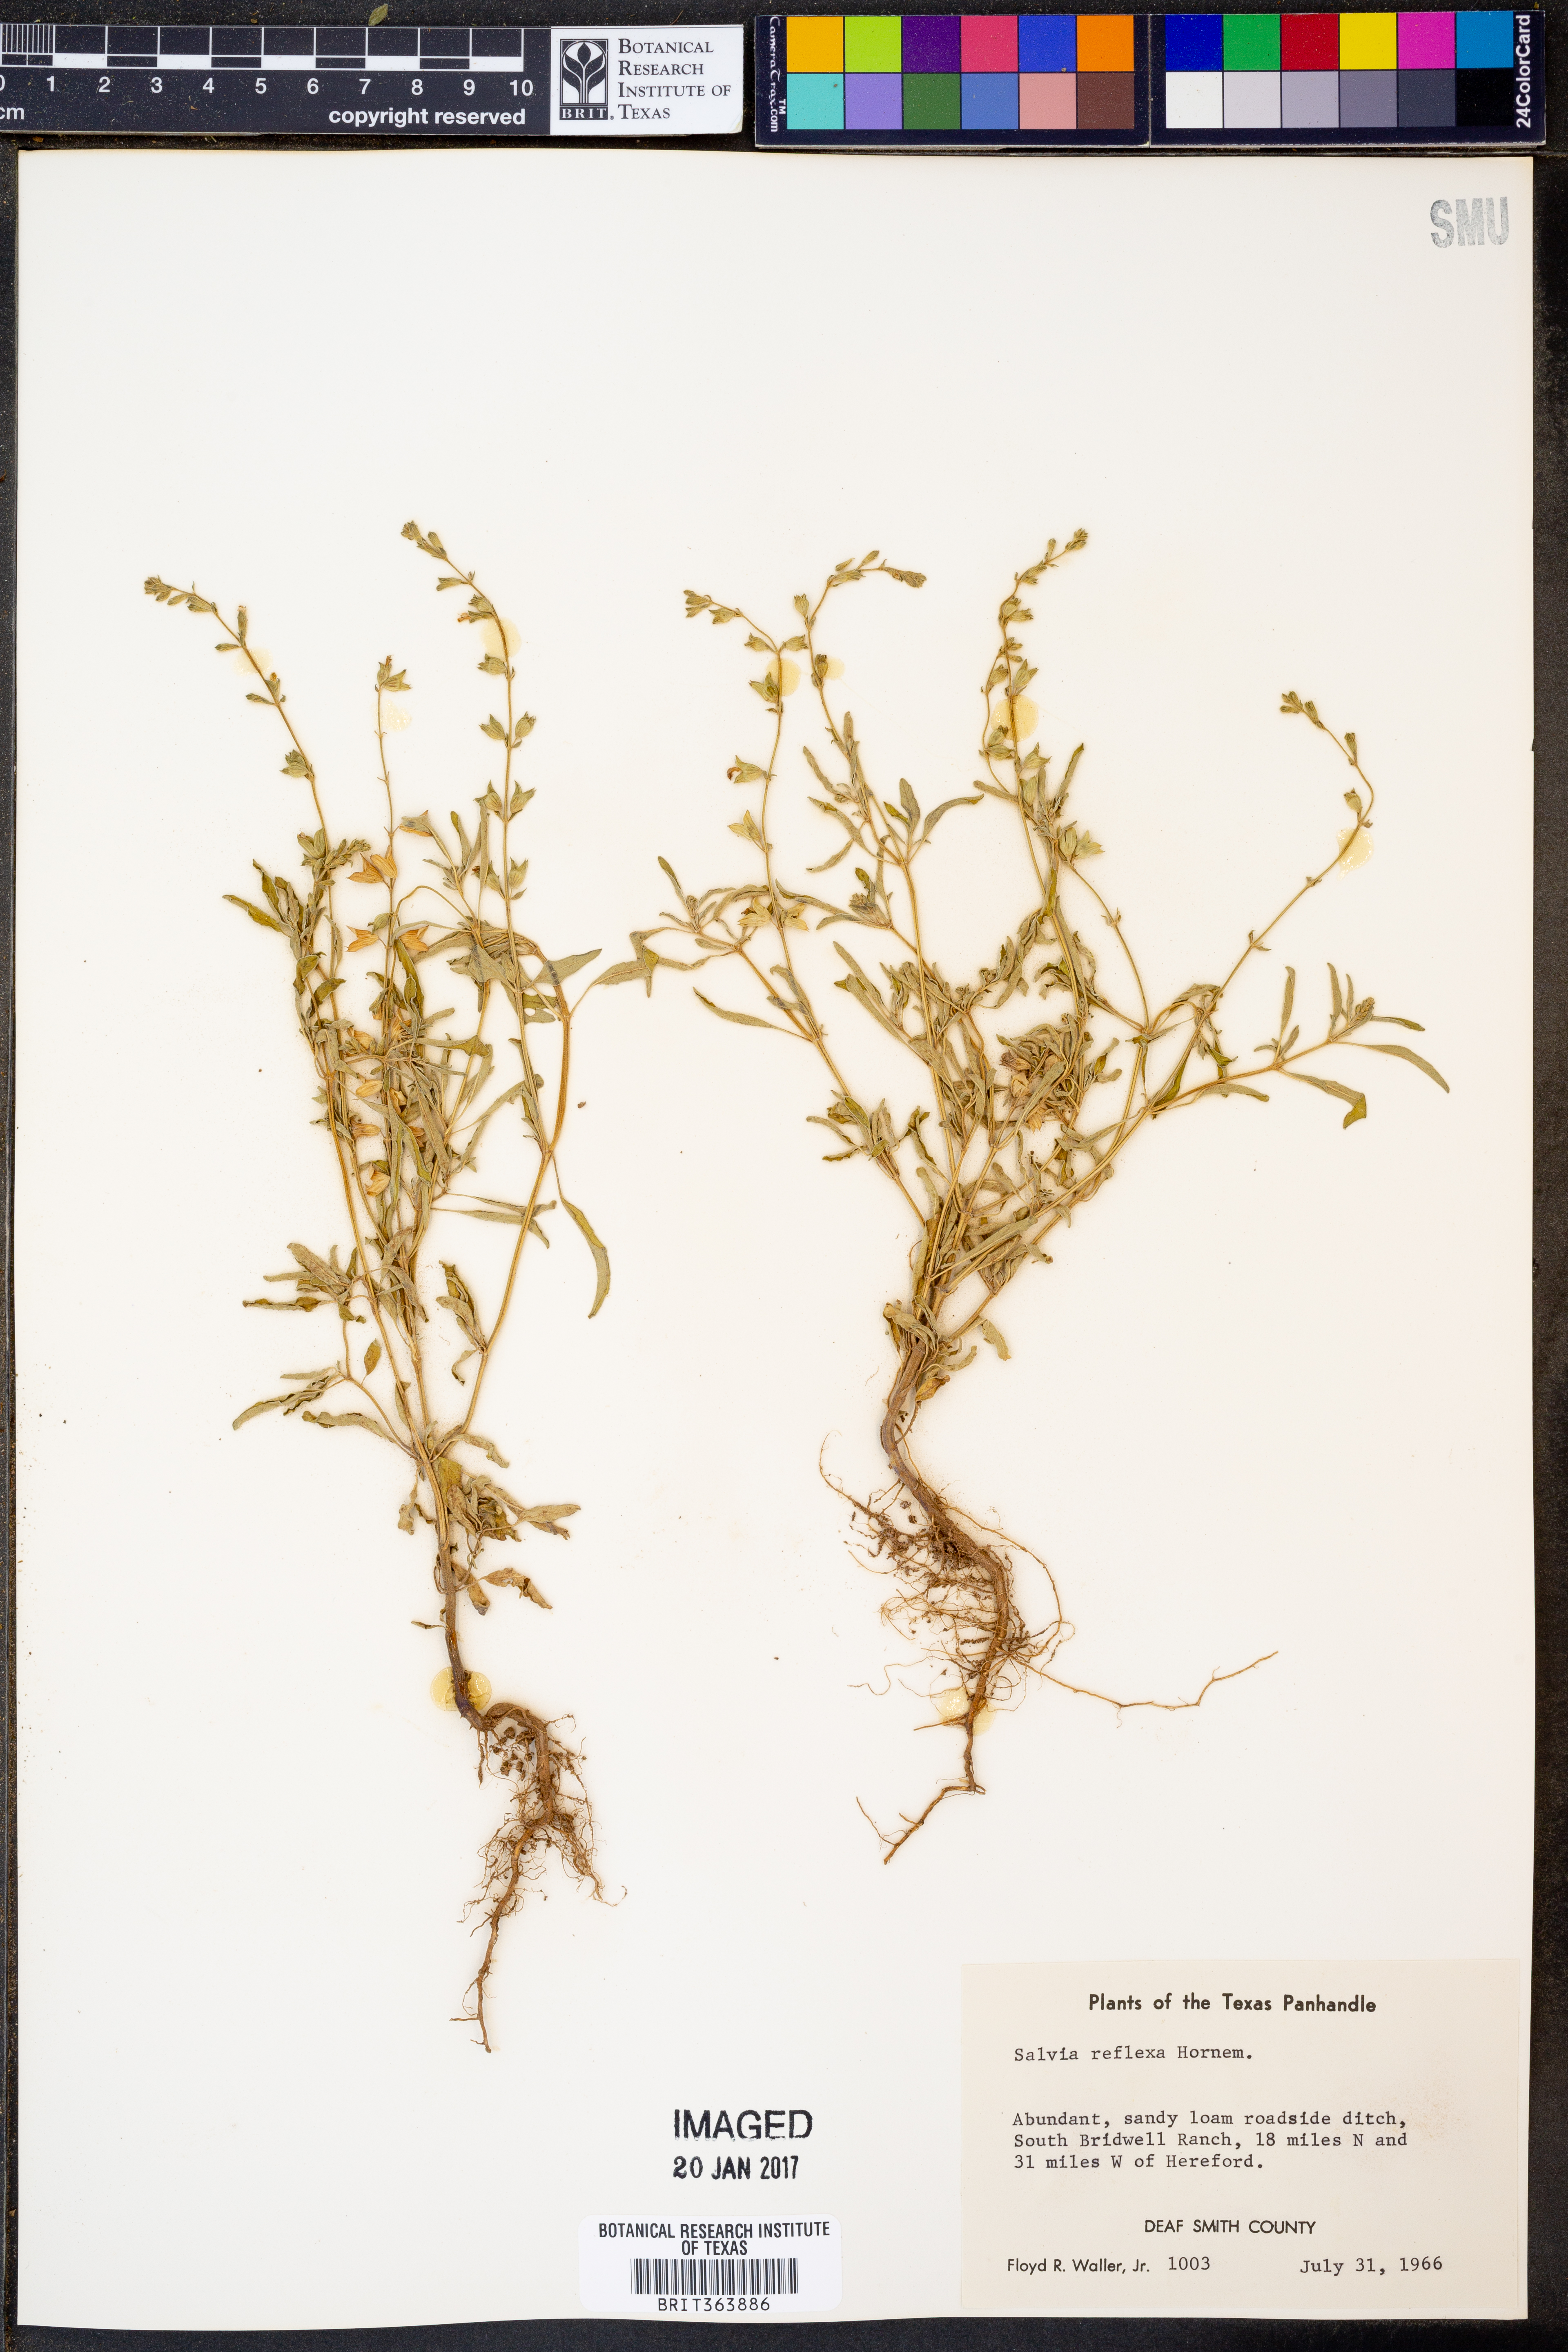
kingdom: Plantae
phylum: Tracheophyta
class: Magnoliopsida
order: Lamiales
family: Lamiaceae
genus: Salvia
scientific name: Salvia reflexa
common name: Mintweed
